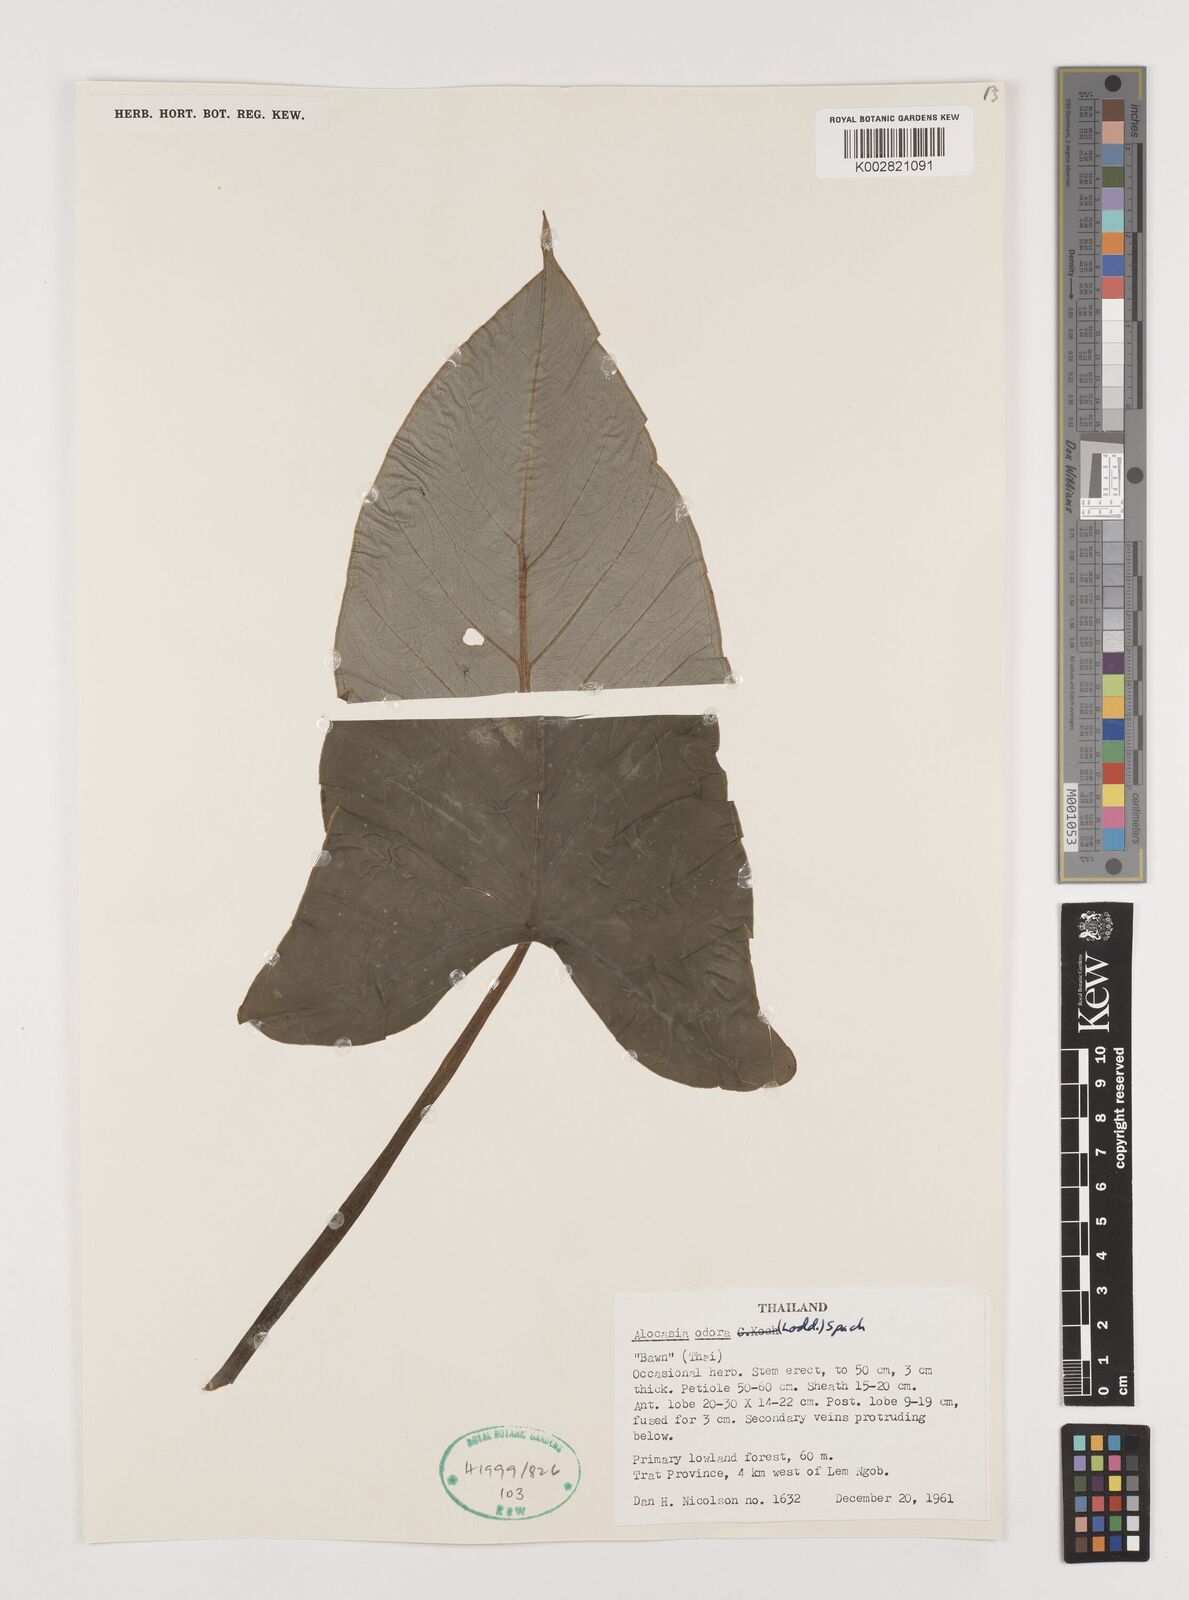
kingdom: Plantae
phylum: Tracheophyta
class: Liliopsida
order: Alismatales
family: Araceae
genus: Alocasia
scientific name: Alocasia
